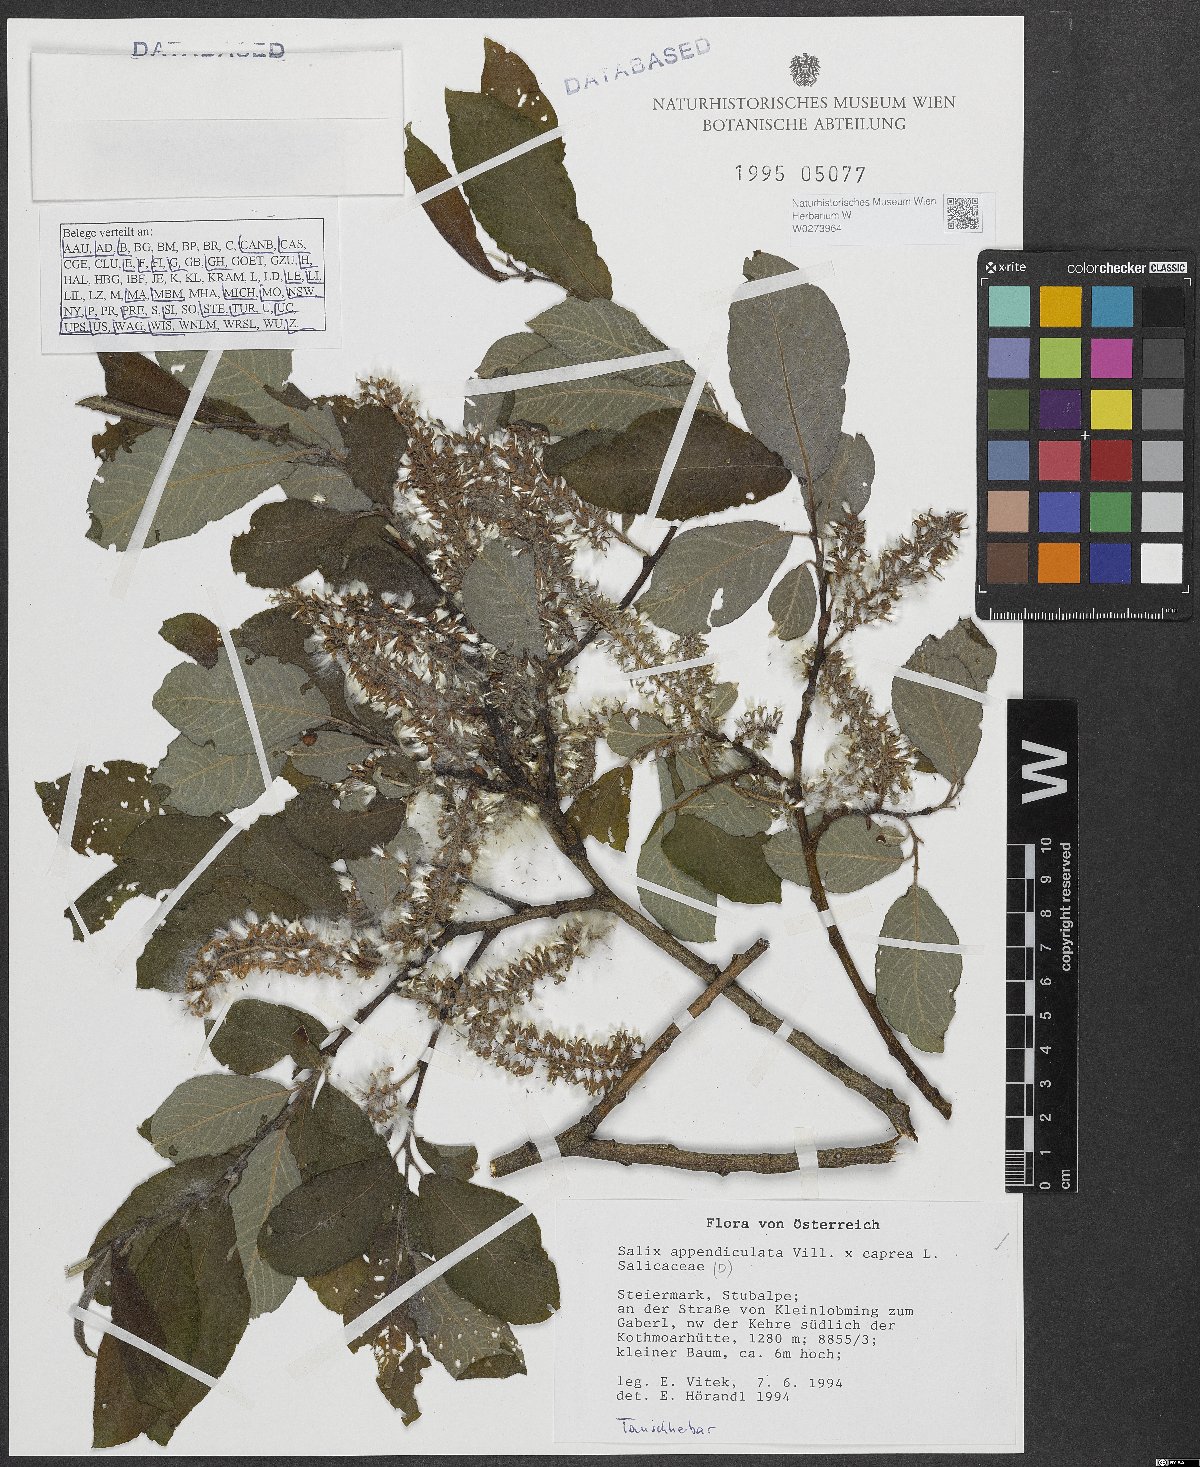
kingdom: Plantae
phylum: Tracheophyta
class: Magnoliopsida
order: Malpighiales
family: Salicaceae
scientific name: Salicaceae
